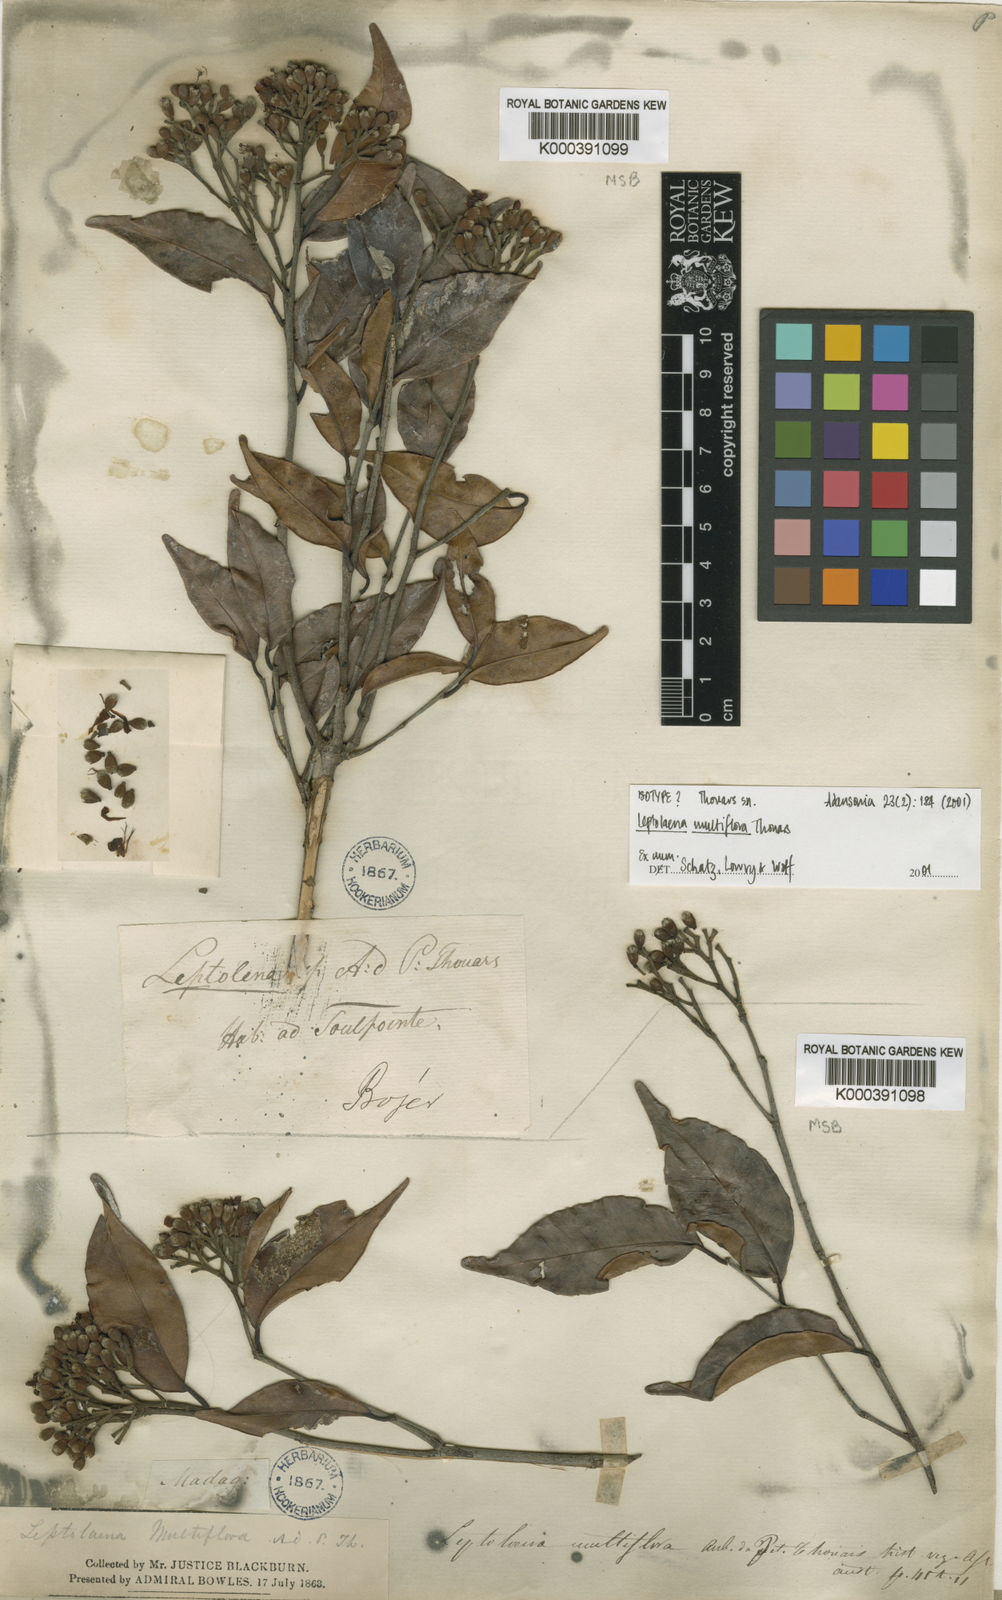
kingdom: Plantae
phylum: Tracheophyta
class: Magnoliopsida
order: Malvales
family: Sarcolaenaceae
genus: Leptolaena
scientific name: Leptolaena multiflora
